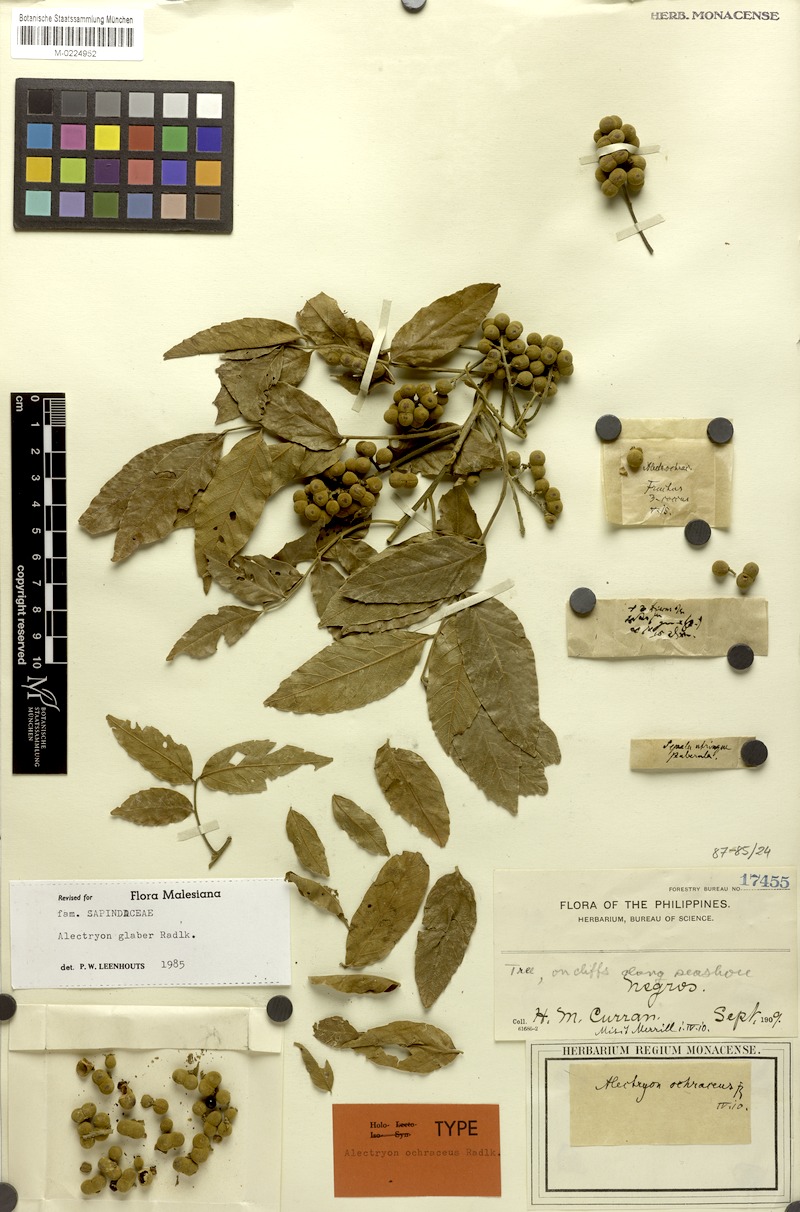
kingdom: Plantae
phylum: Tracheophyta
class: Magnoliopsida
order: Sapindales
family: Sapindaceae
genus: Alectryon
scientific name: Alectryon glaber
